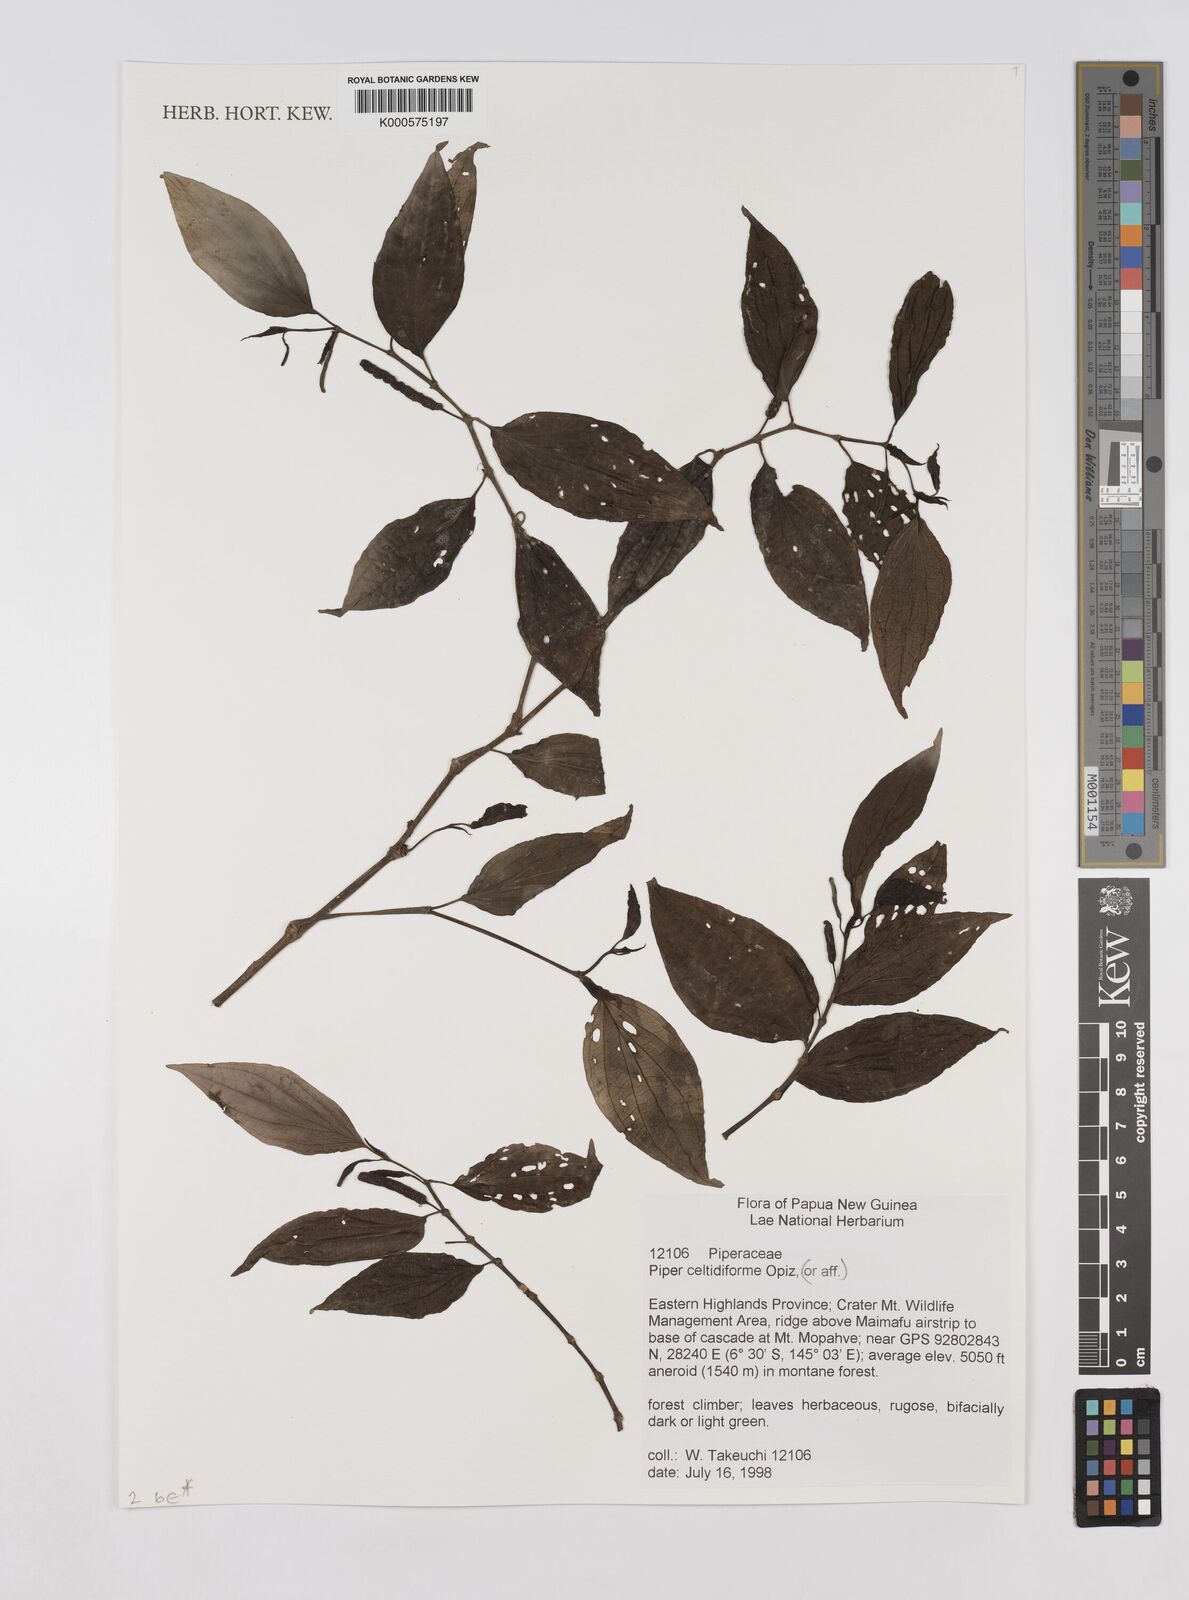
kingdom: Plantae
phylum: Tracheophyta
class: Magnoliopsida
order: Piperales
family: Piperaceae
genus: Piper
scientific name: Piper celtidiforme
